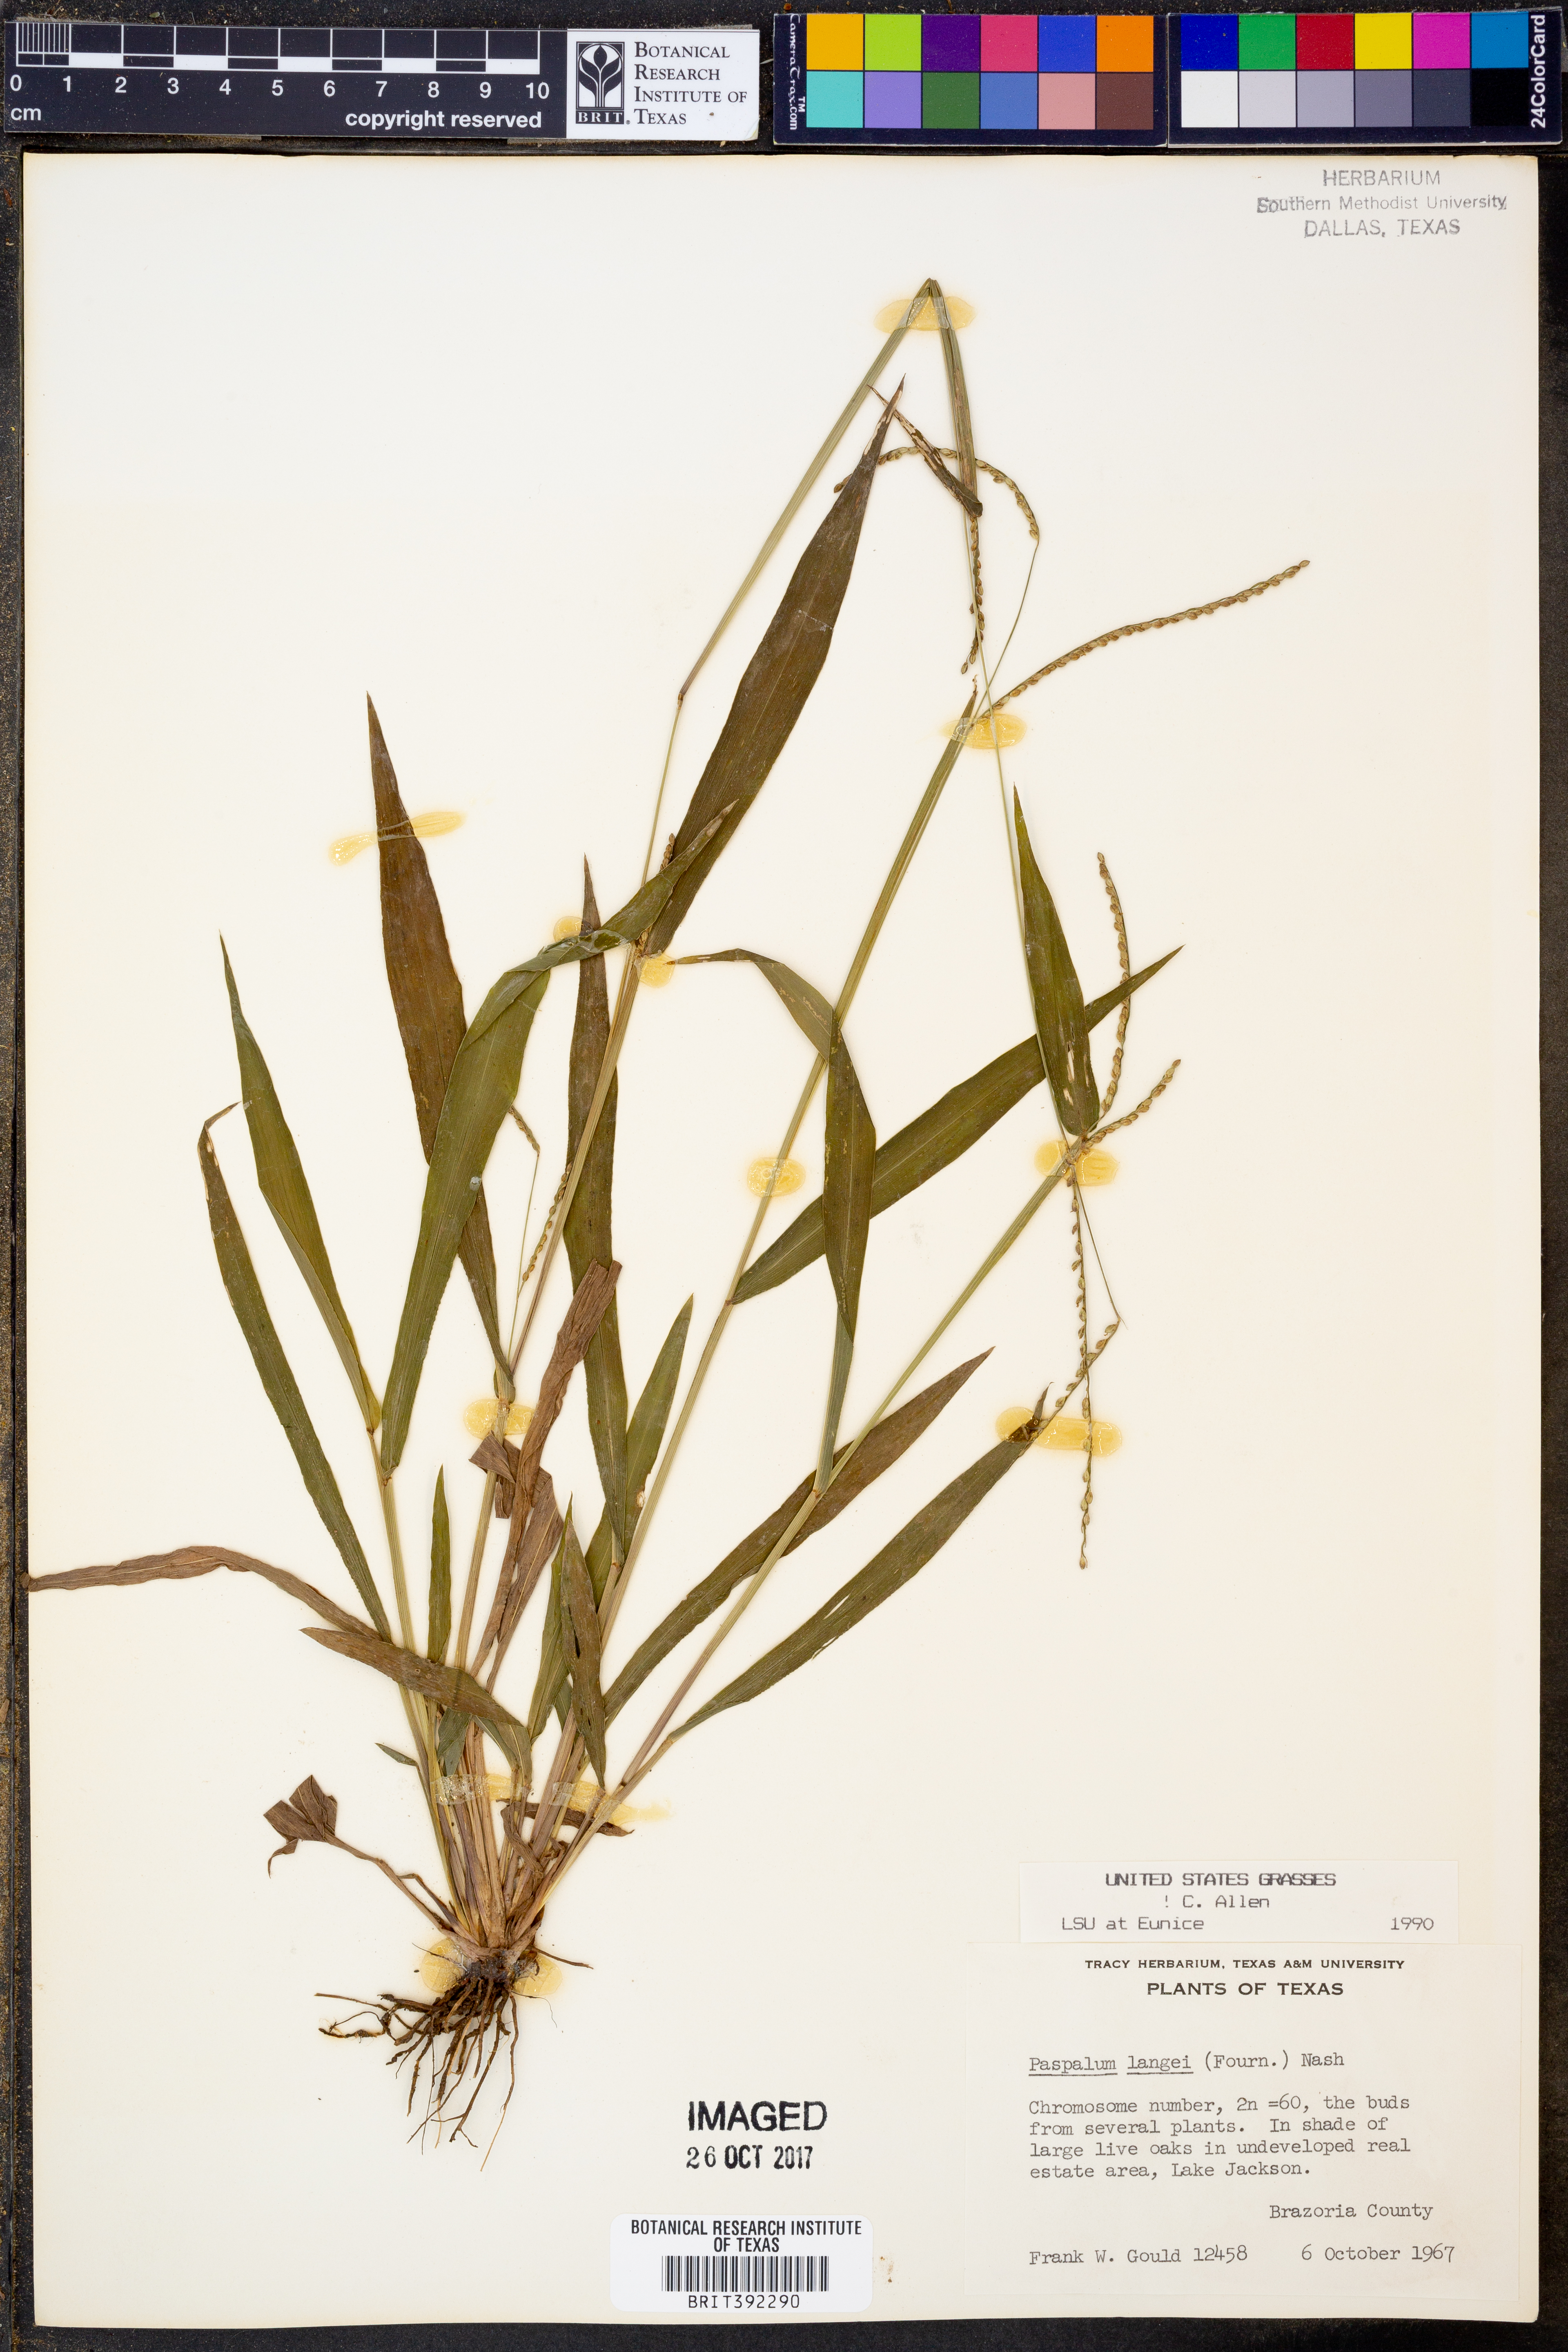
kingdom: Plantae
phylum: Tracheophyta
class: Liliopsida
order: Poales
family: Poaceae
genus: Paspalum
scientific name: Paspalum langei
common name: Rusty-seed paspalum
